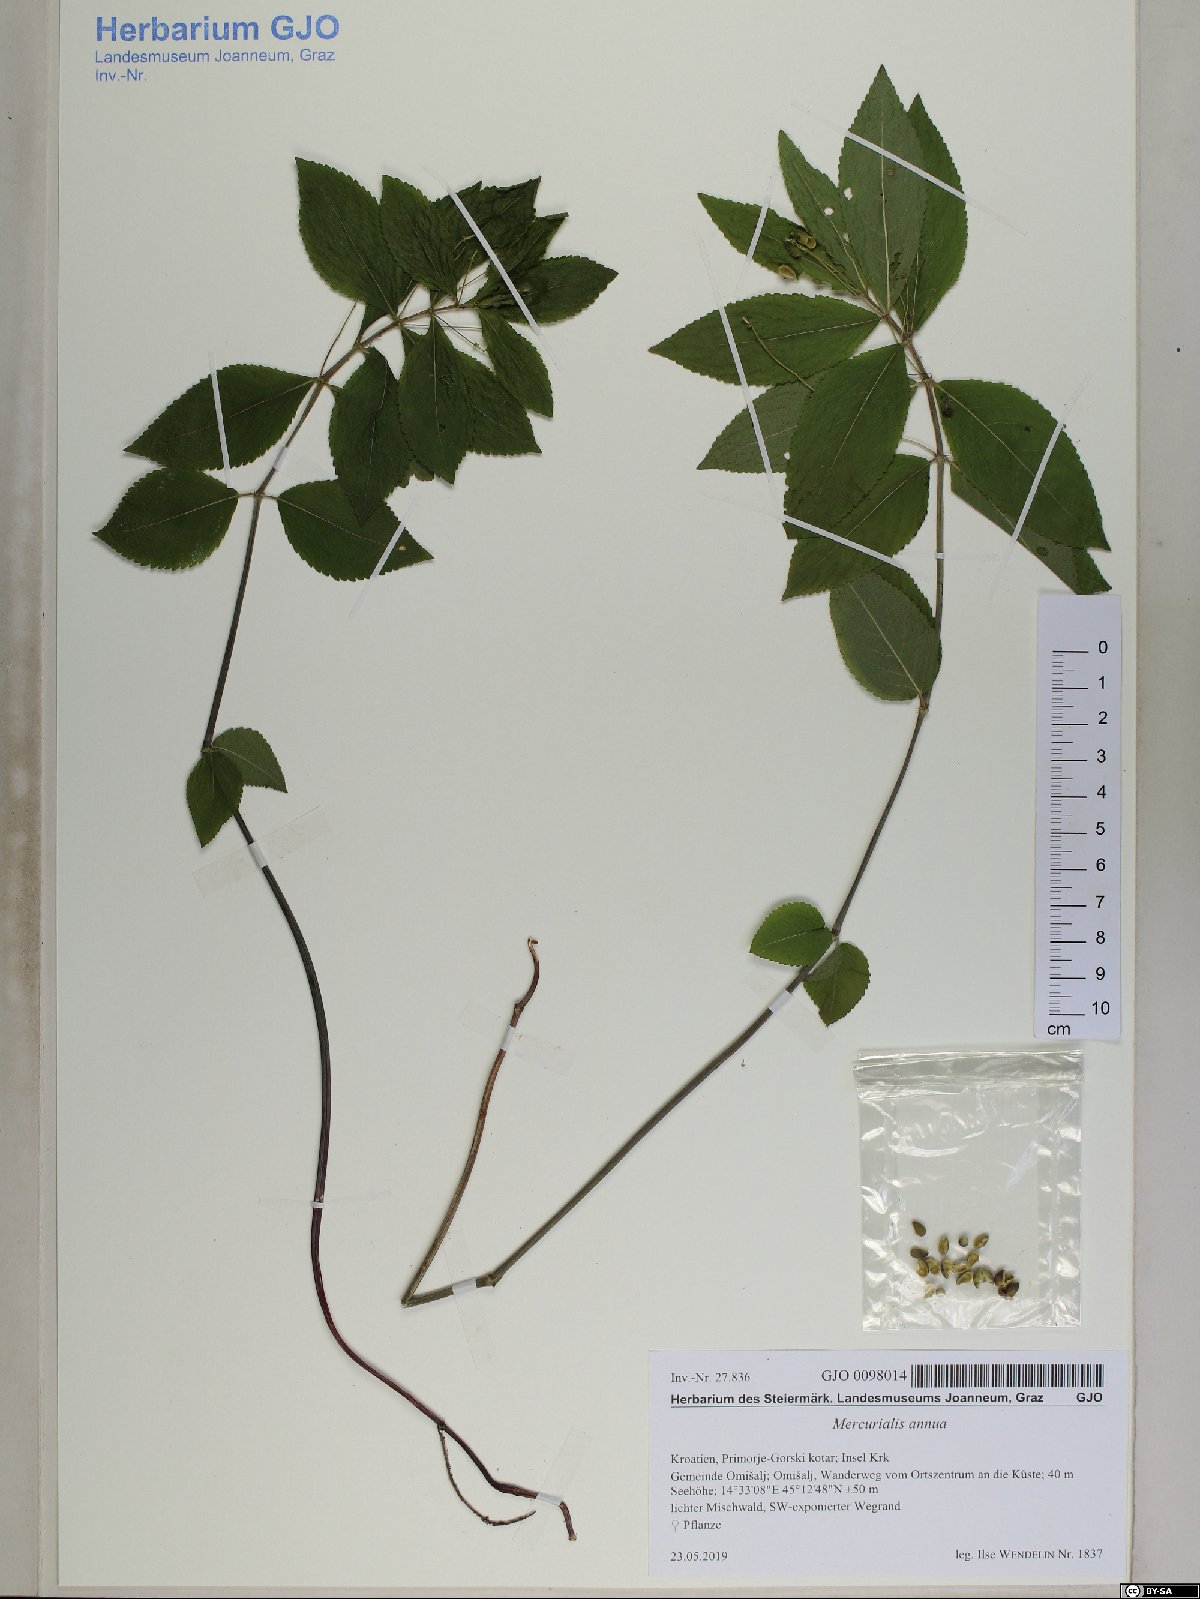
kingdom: Plantae
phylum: Tracheophyta
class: Magnoliopsida
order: Malpighiales
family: Euphorbiaceae
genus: Mercurialis
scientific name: Mercurialis perennis
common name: Dog mercury
